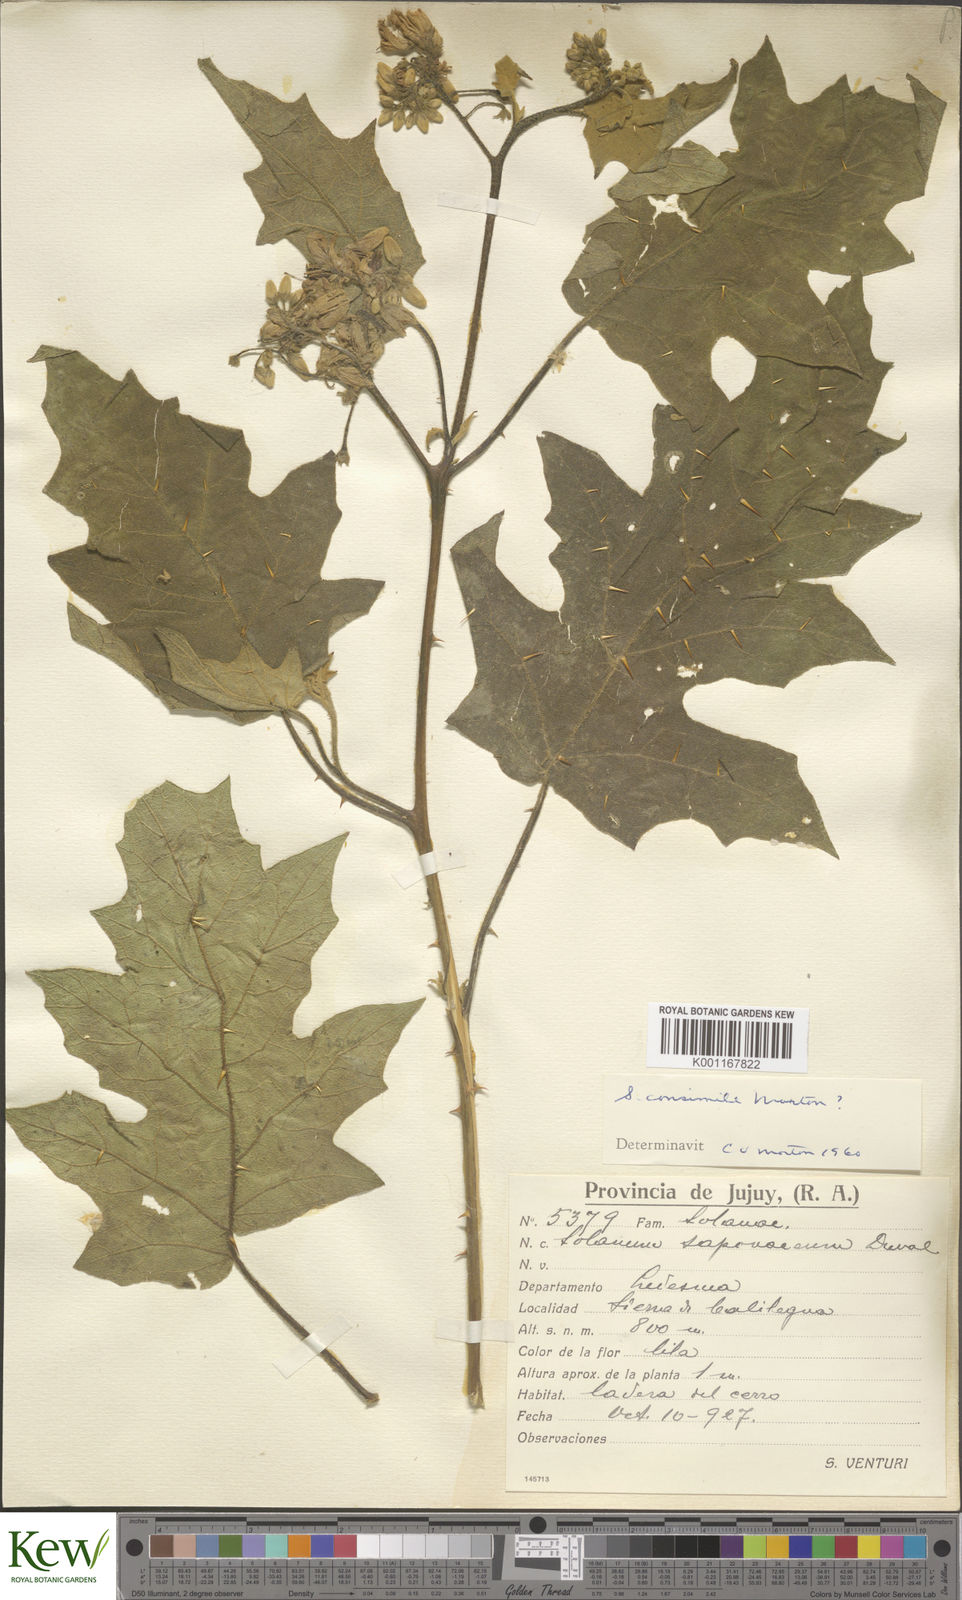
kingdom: Plantae
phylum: Tracheophyta
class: Magnoliopsida
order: Solanales
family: Solanaceae
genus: Solanum
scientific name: Solanum consimile
